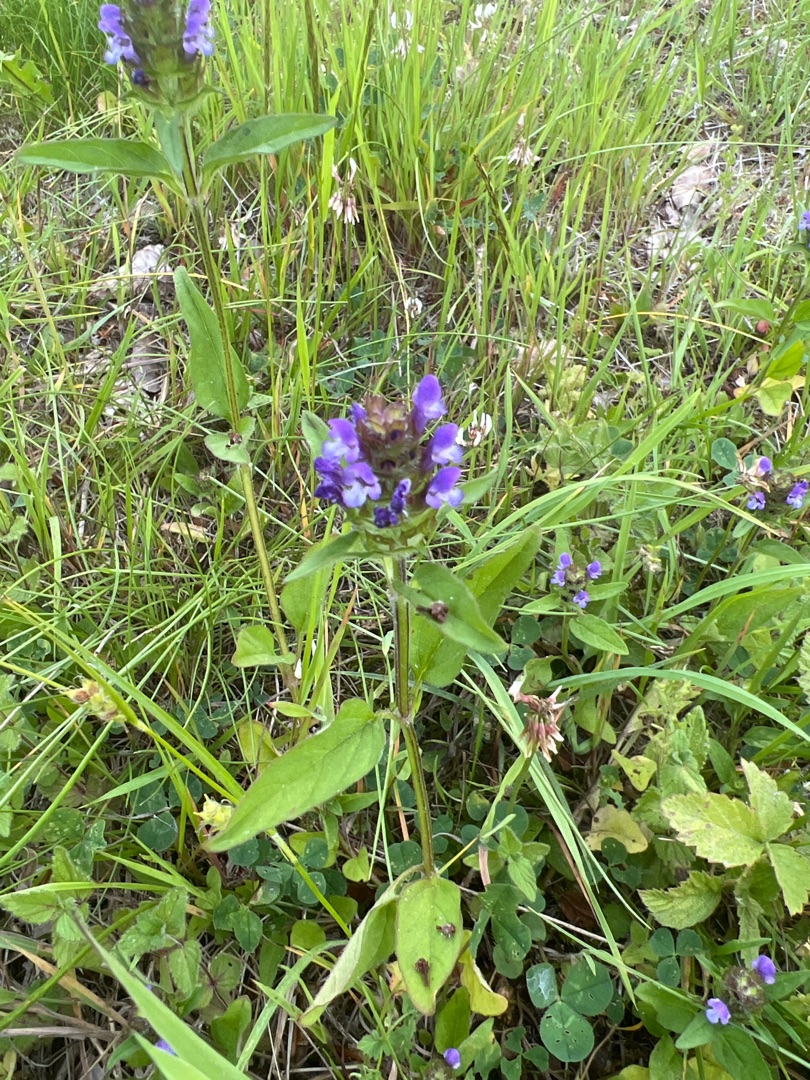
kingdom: Plantae
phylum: Tracheophyta
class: Magnoliopsida
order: Lamiales
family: Lamiaceae
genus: Prunella
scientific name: Prunella vulgaris
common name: Almindelig brunelle
